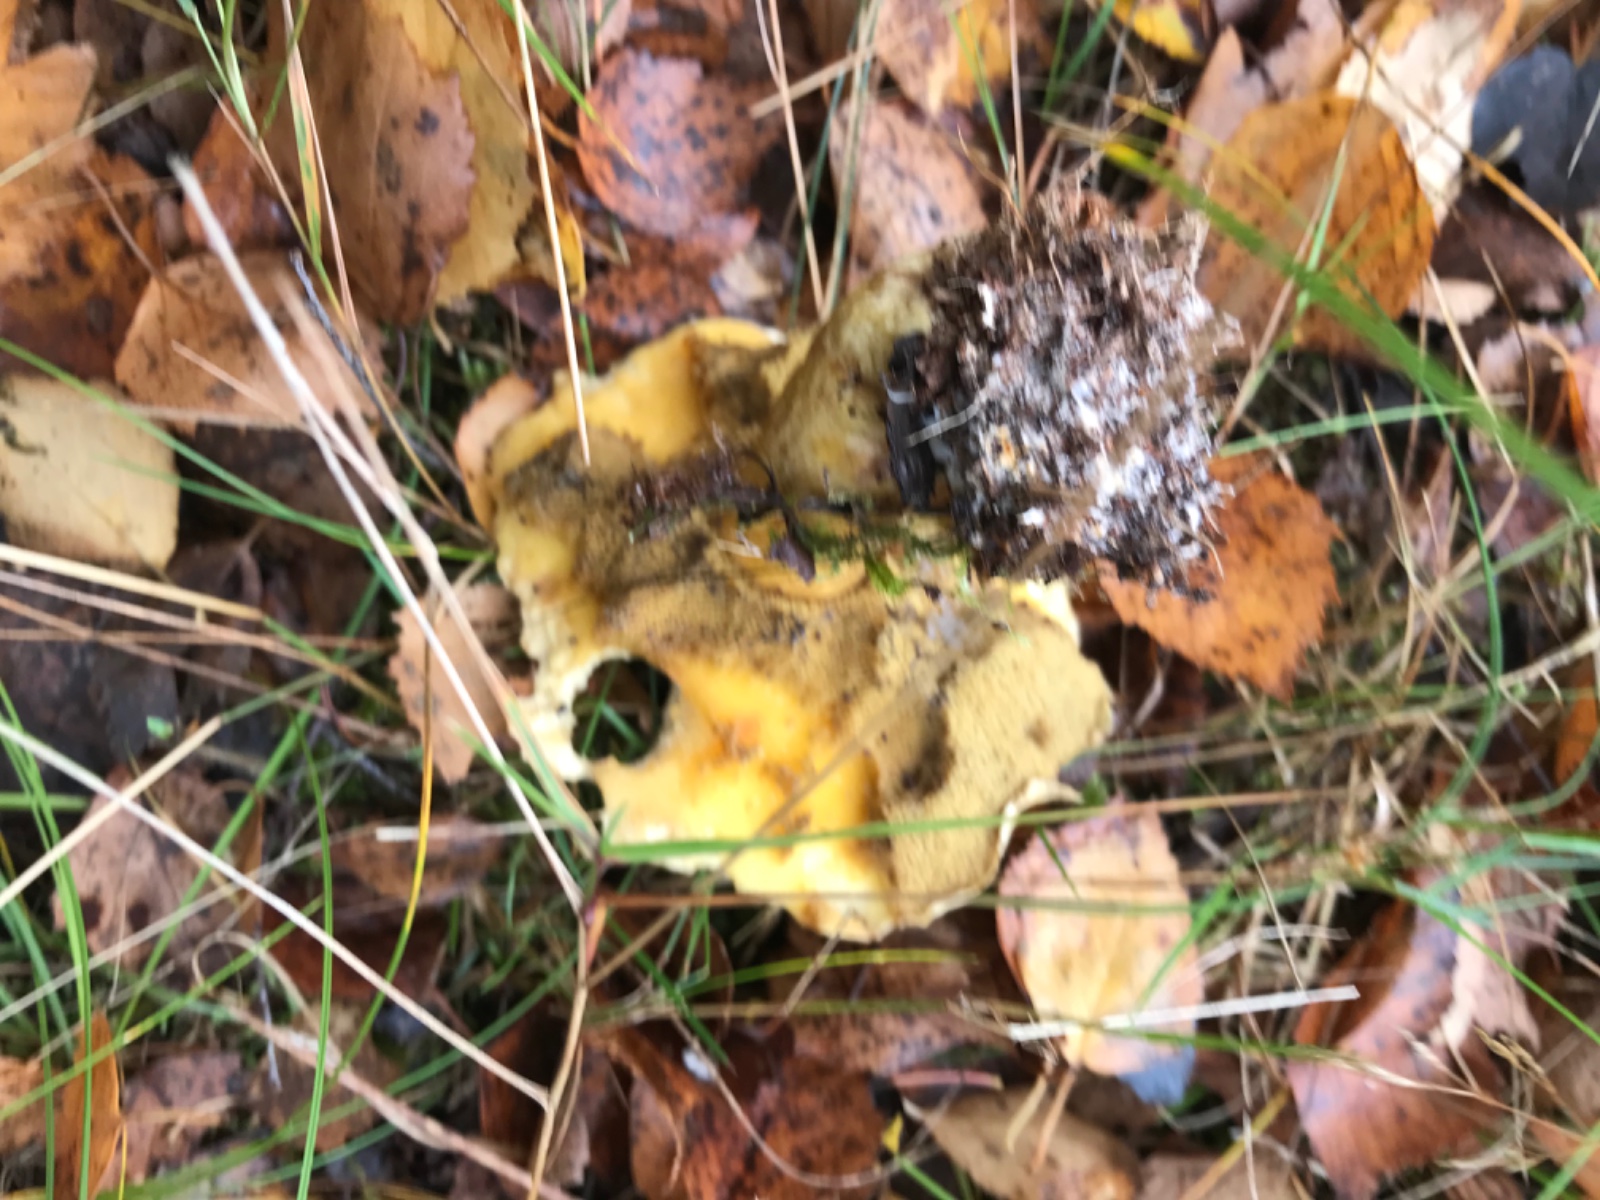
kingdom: Fungi
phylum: Basidiomycota
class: Agaricomycetes
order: Boletales
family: Suillaceae
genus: Suillus
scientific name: Suillus variegatus
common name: broget slimrørhat
